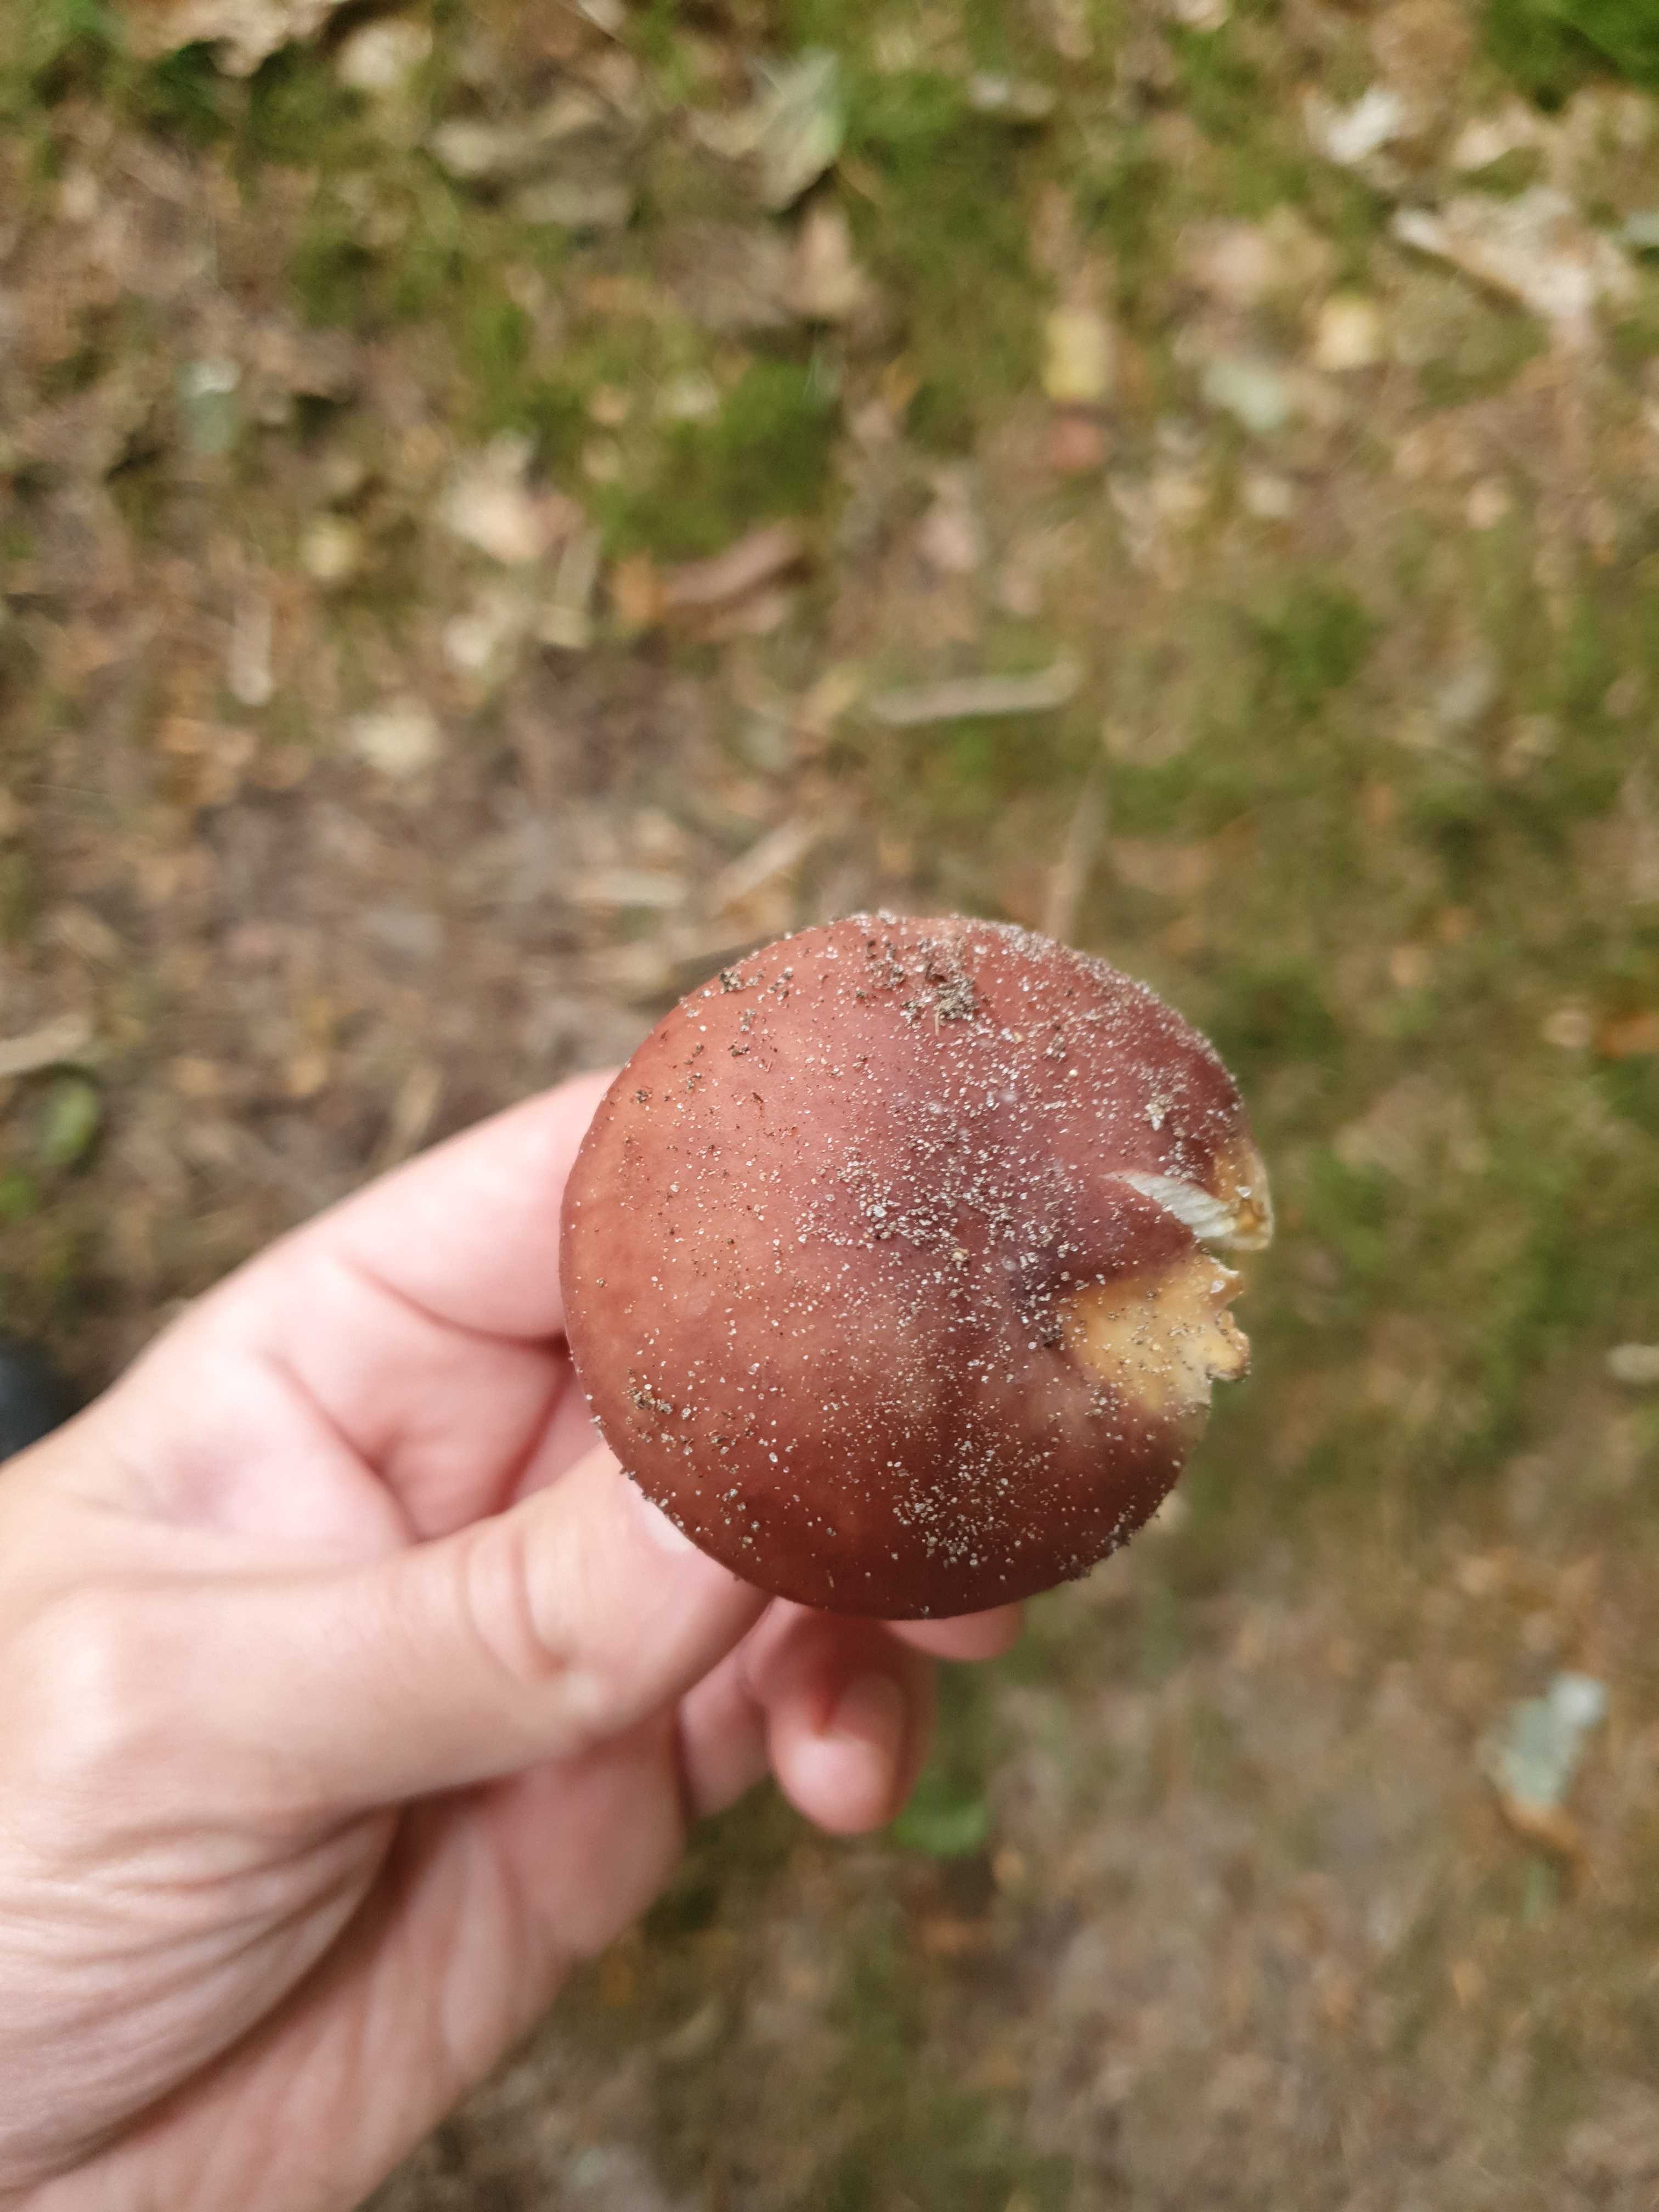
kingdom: Fungi
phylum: Basidiomycota
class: Agaricomycetes
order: Russulales
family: Russulaceae
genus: Russula
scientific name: Russula vesca
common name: spiselig skørhat
